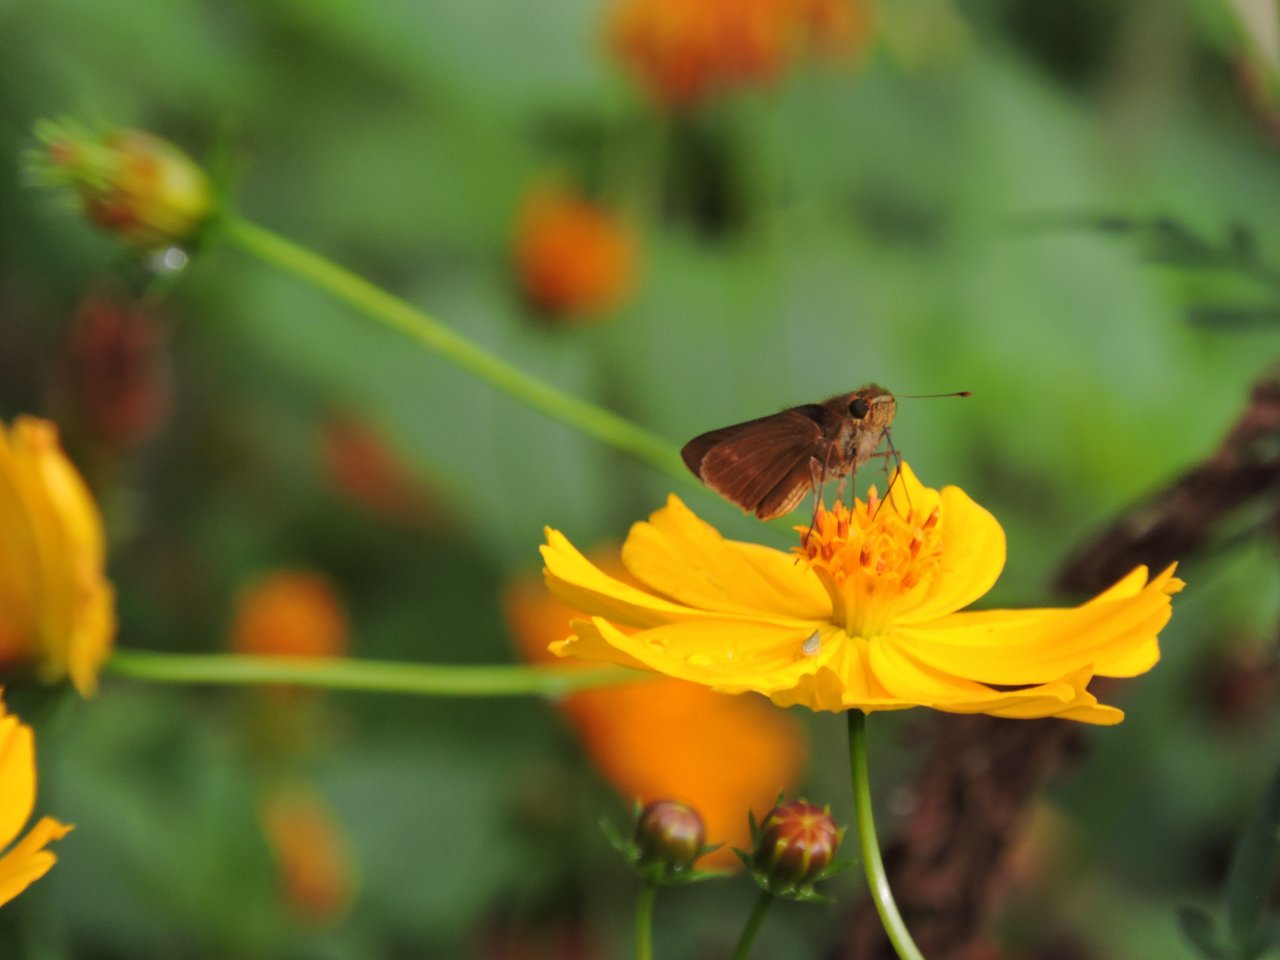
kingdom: Animalia
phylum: Arthropoda
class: Insecta
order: Lepidoptera
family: Hesperiidae
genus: Panoquina
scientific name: Panoquina ocola
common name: Ocola Skipper
